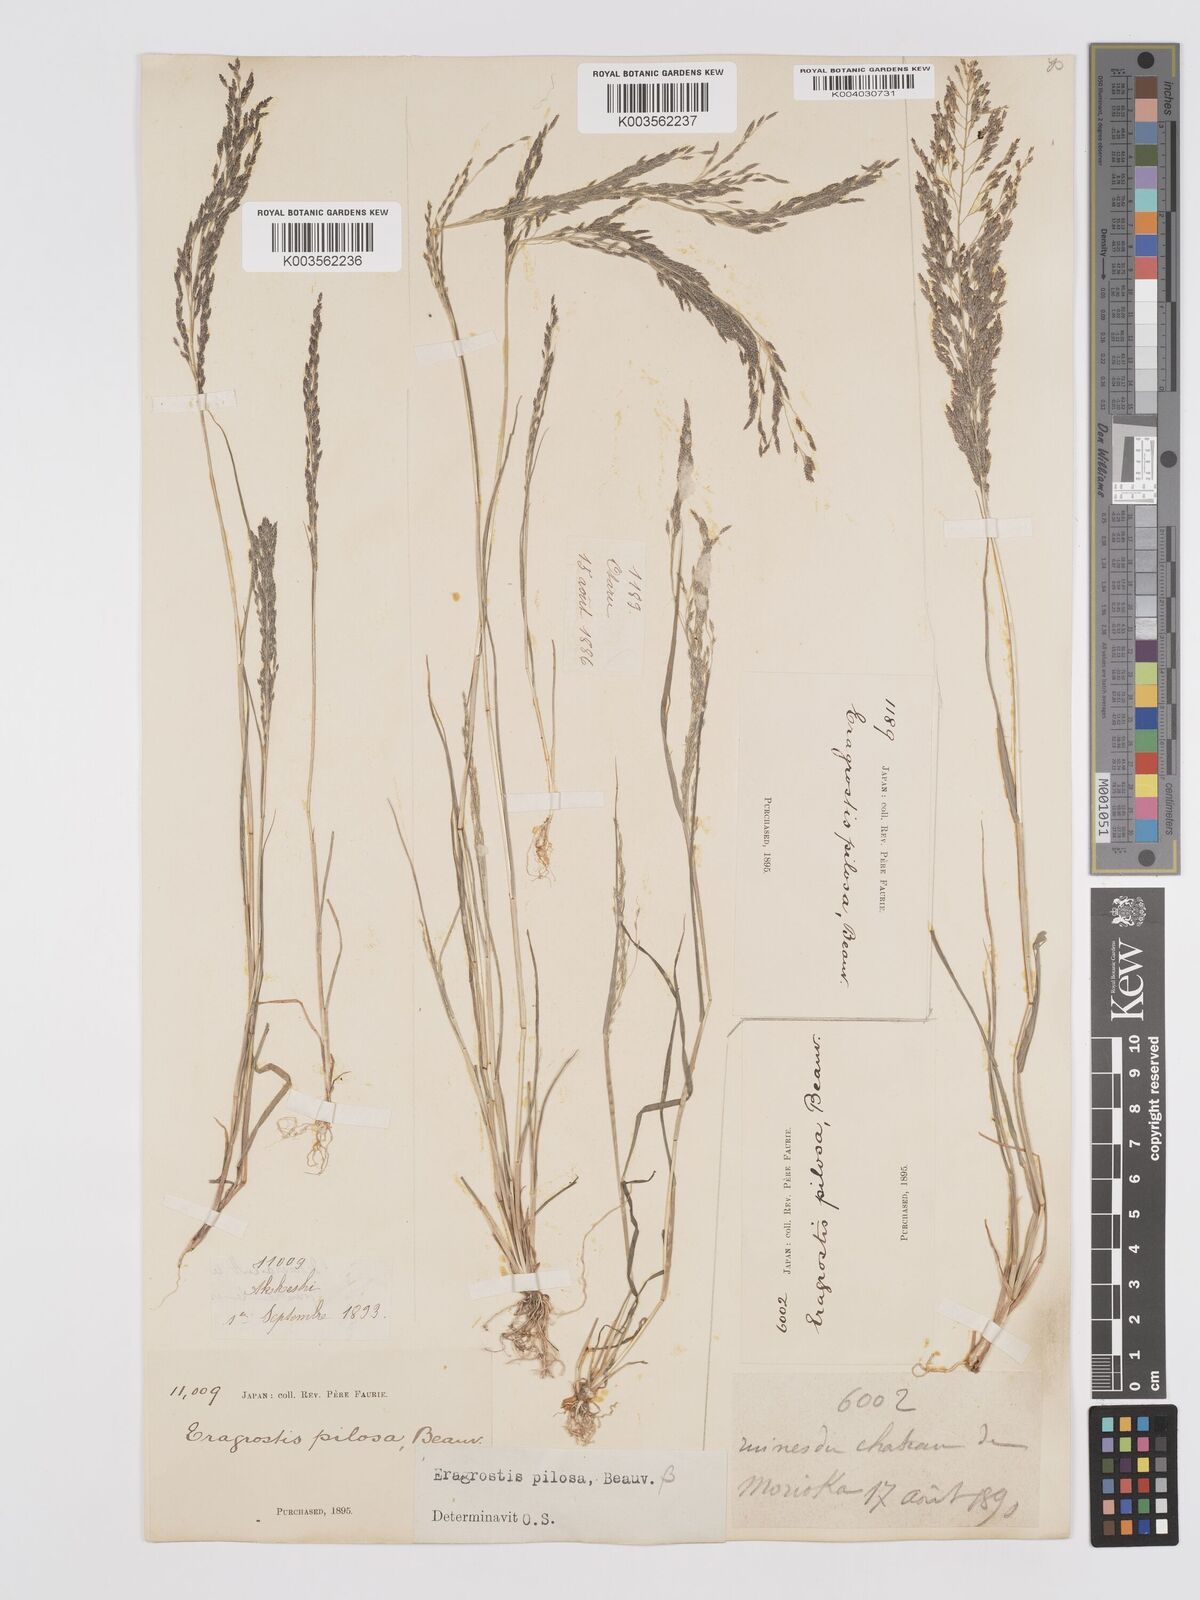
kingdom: Plantae
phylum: Tracheophyta
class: Liliopsida
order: Poales
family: Poaceae
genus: Eragrostis
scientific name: Eragrostis pilosa
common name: Indian lovegrass
